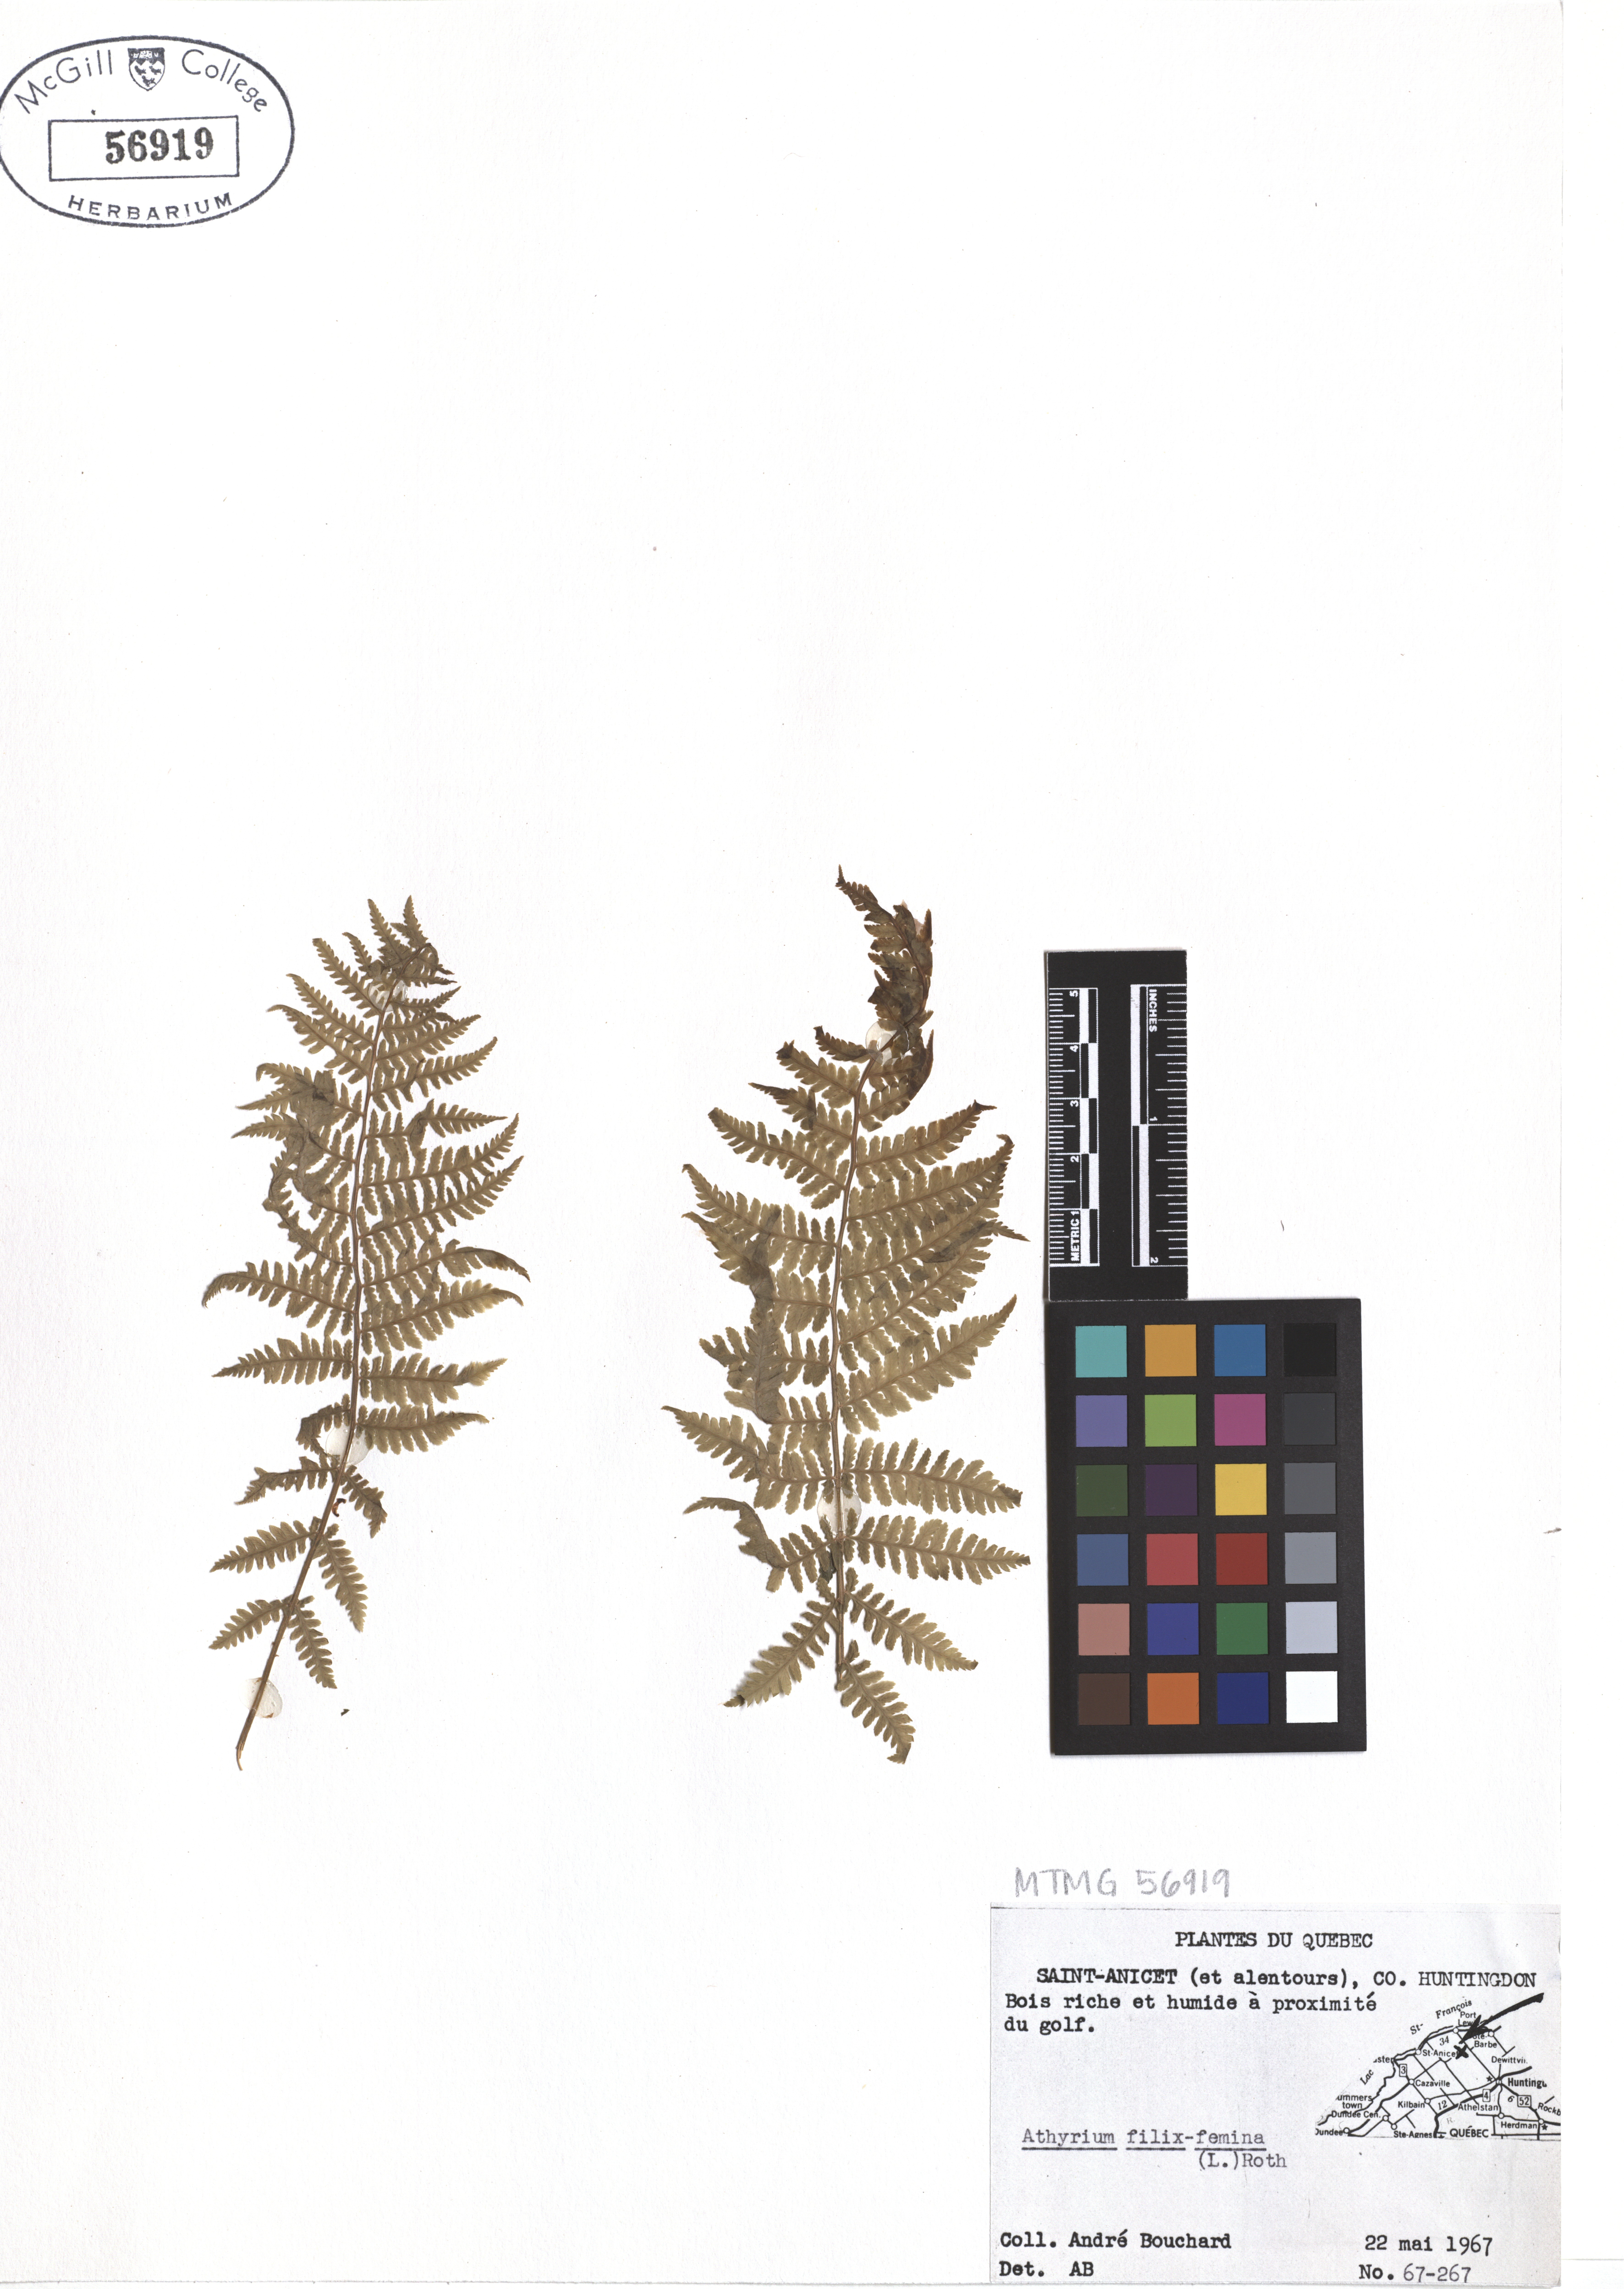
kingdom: Plantae
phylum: Tracheophyta
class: Polypodiopsida
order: Polypodiales
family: Athyriaceae
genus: Athyrium
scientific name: Athyrium filix-femina
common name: Lady fern
